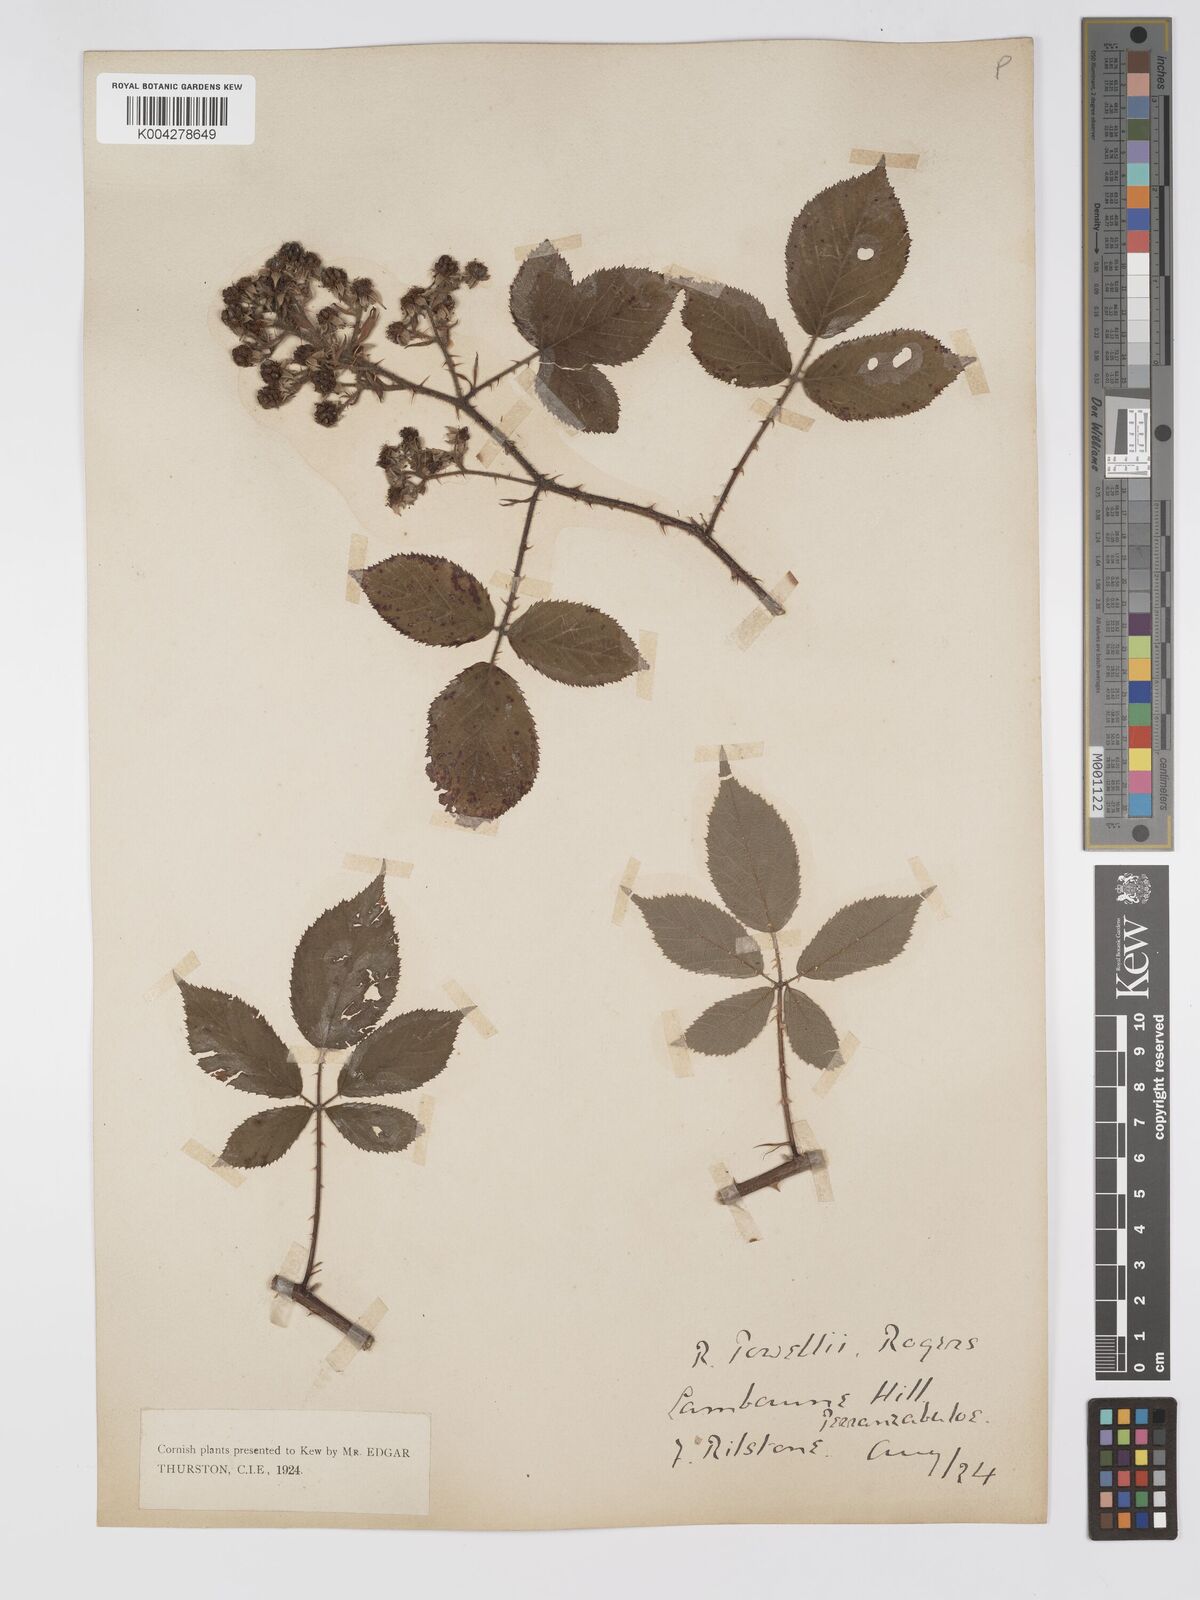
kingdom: Plantae
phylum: Tracheophyta
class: Magnoliopsida
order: Rosales
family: Rosaceae
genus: Rubus
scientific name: Rubus radula
